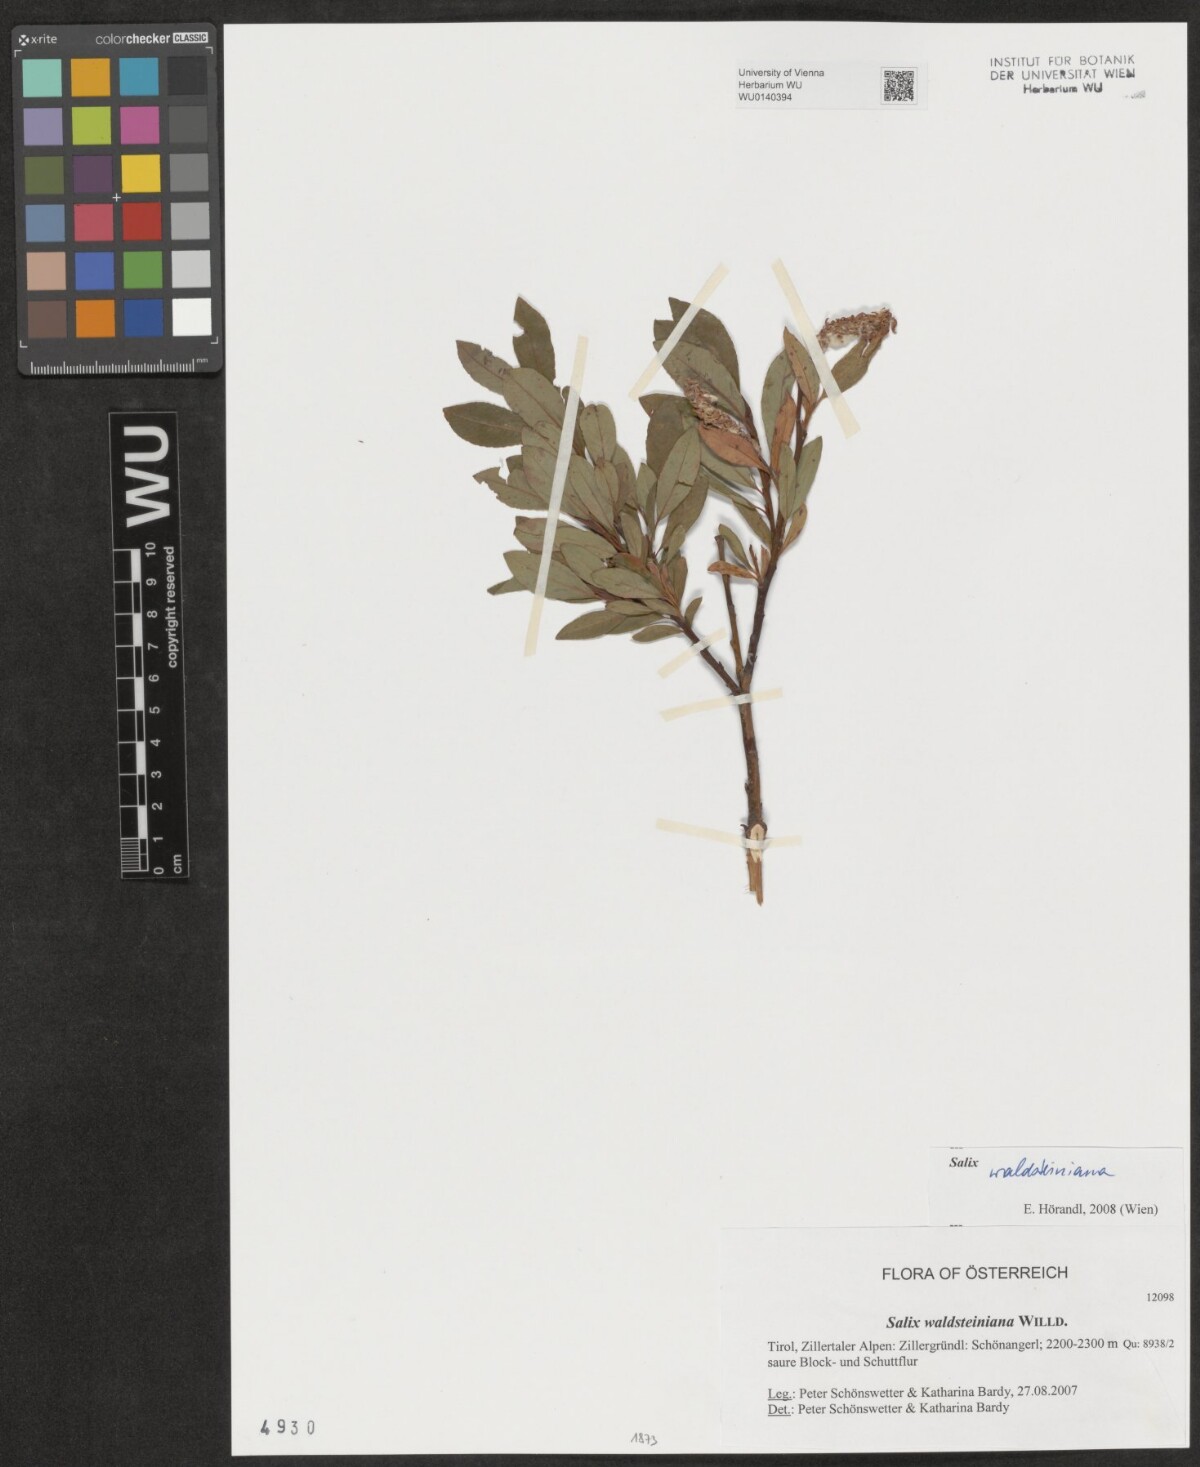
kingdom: Plantae
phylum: Tracheophyta
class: Magnoliopsida
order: Malpighiales
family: Salicaceae
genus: Salix
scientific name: Salix waldsteiniana
